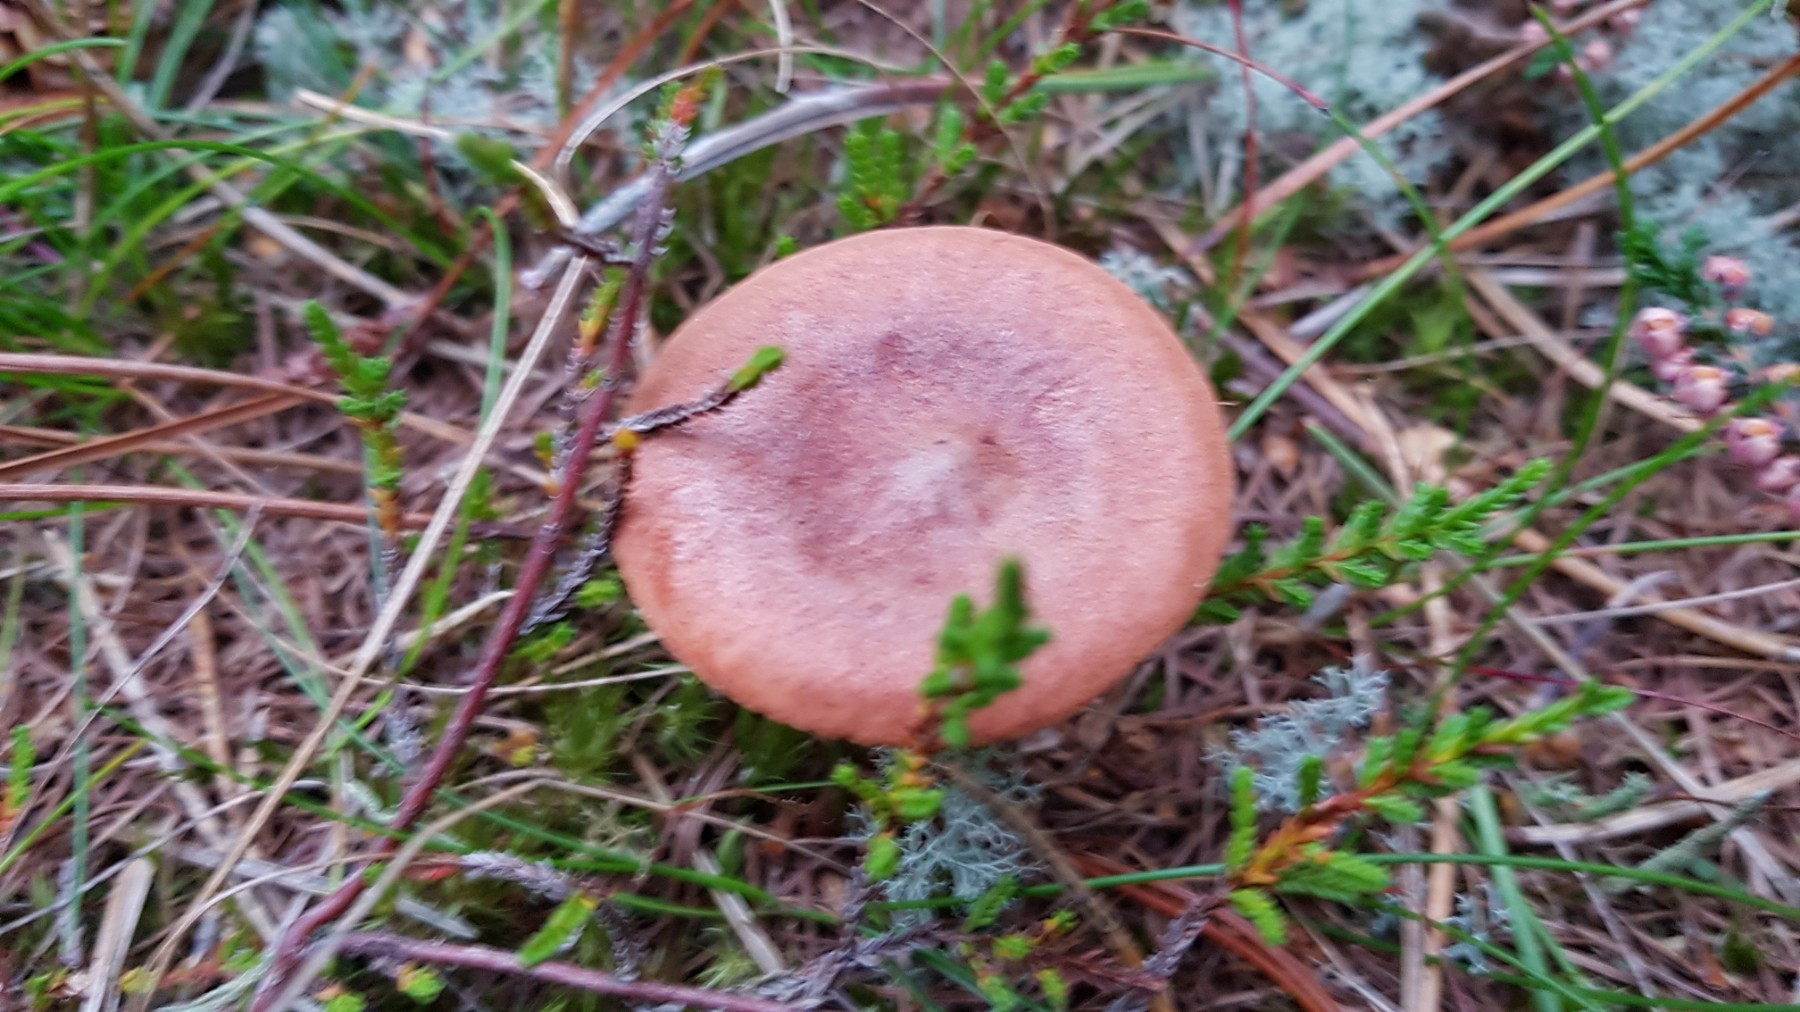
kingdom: Fungi
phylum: Basidiomycota
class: Agaricomycetes
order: Russulales
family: Russulaceae
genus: Lactarius
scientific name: Lactarius rufus
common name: rødbrun mælkehat
